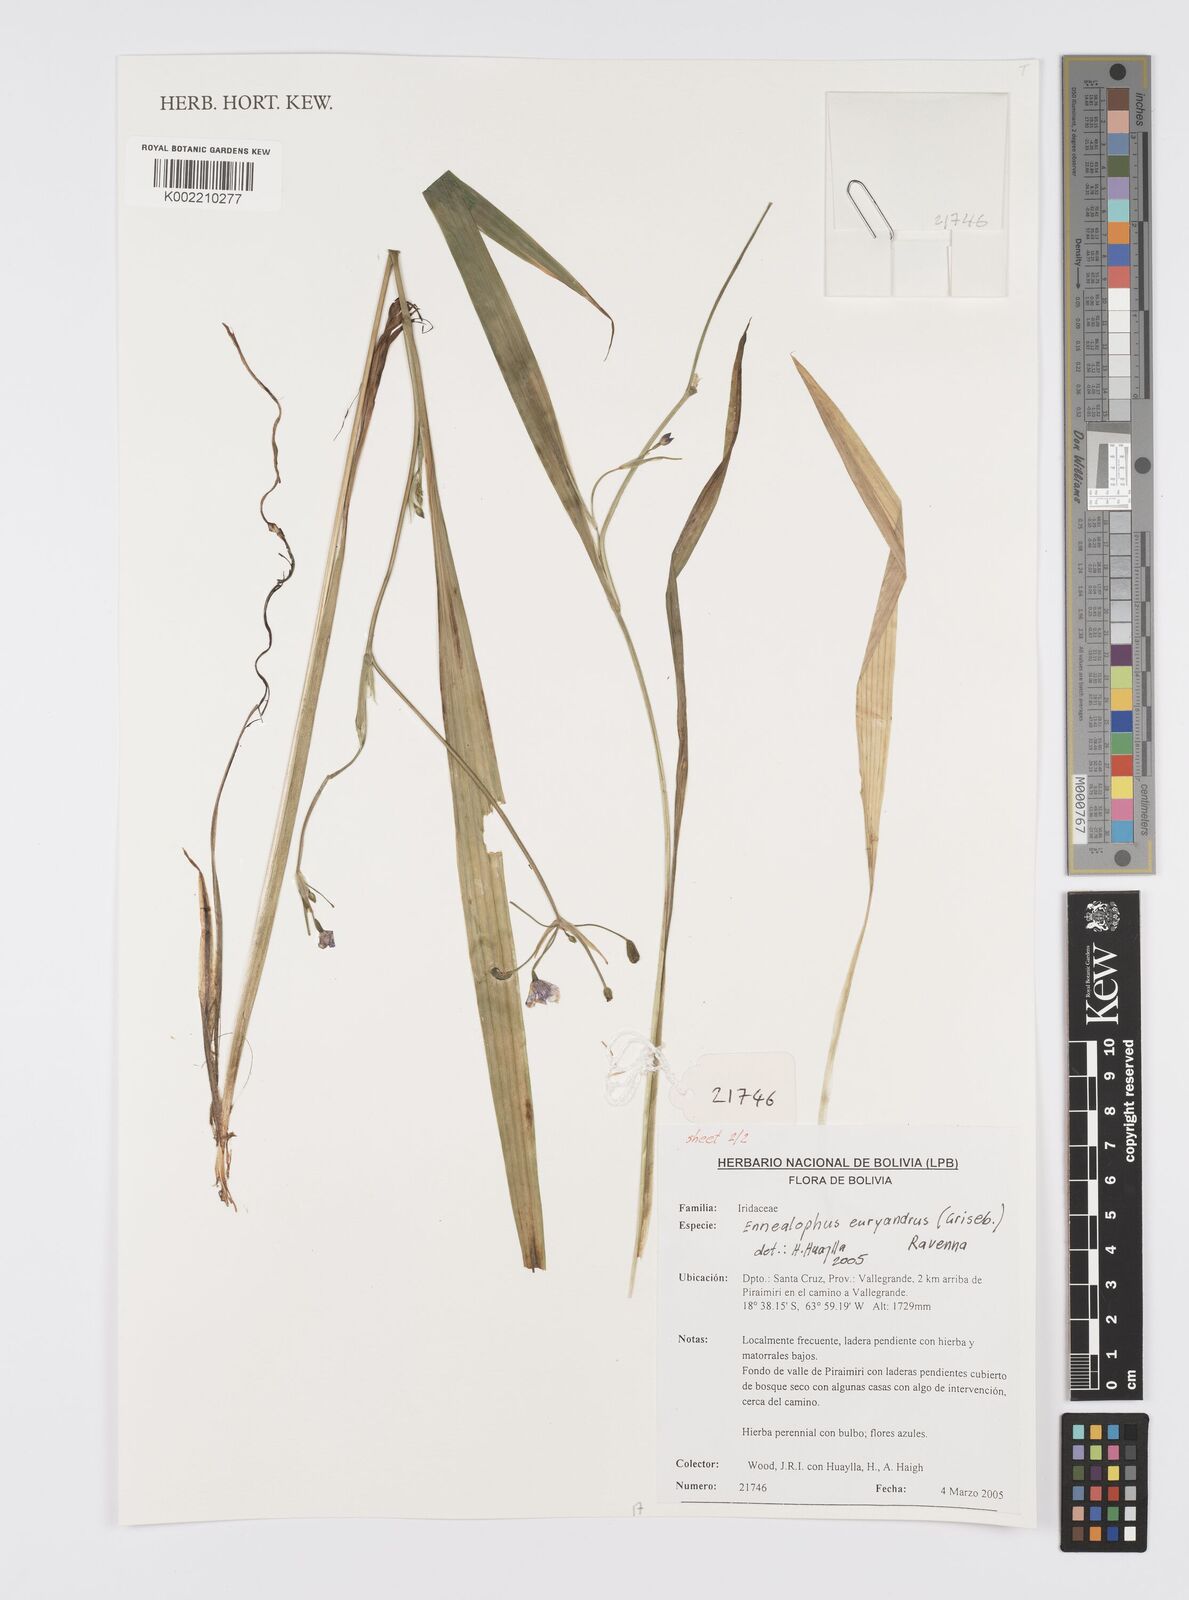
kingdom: Plantae
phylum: Tracheophyta
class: Liliopsida
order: Asparagales
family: Iridaceae
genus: Ennealophus
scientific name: Ennealophus euryandrus
